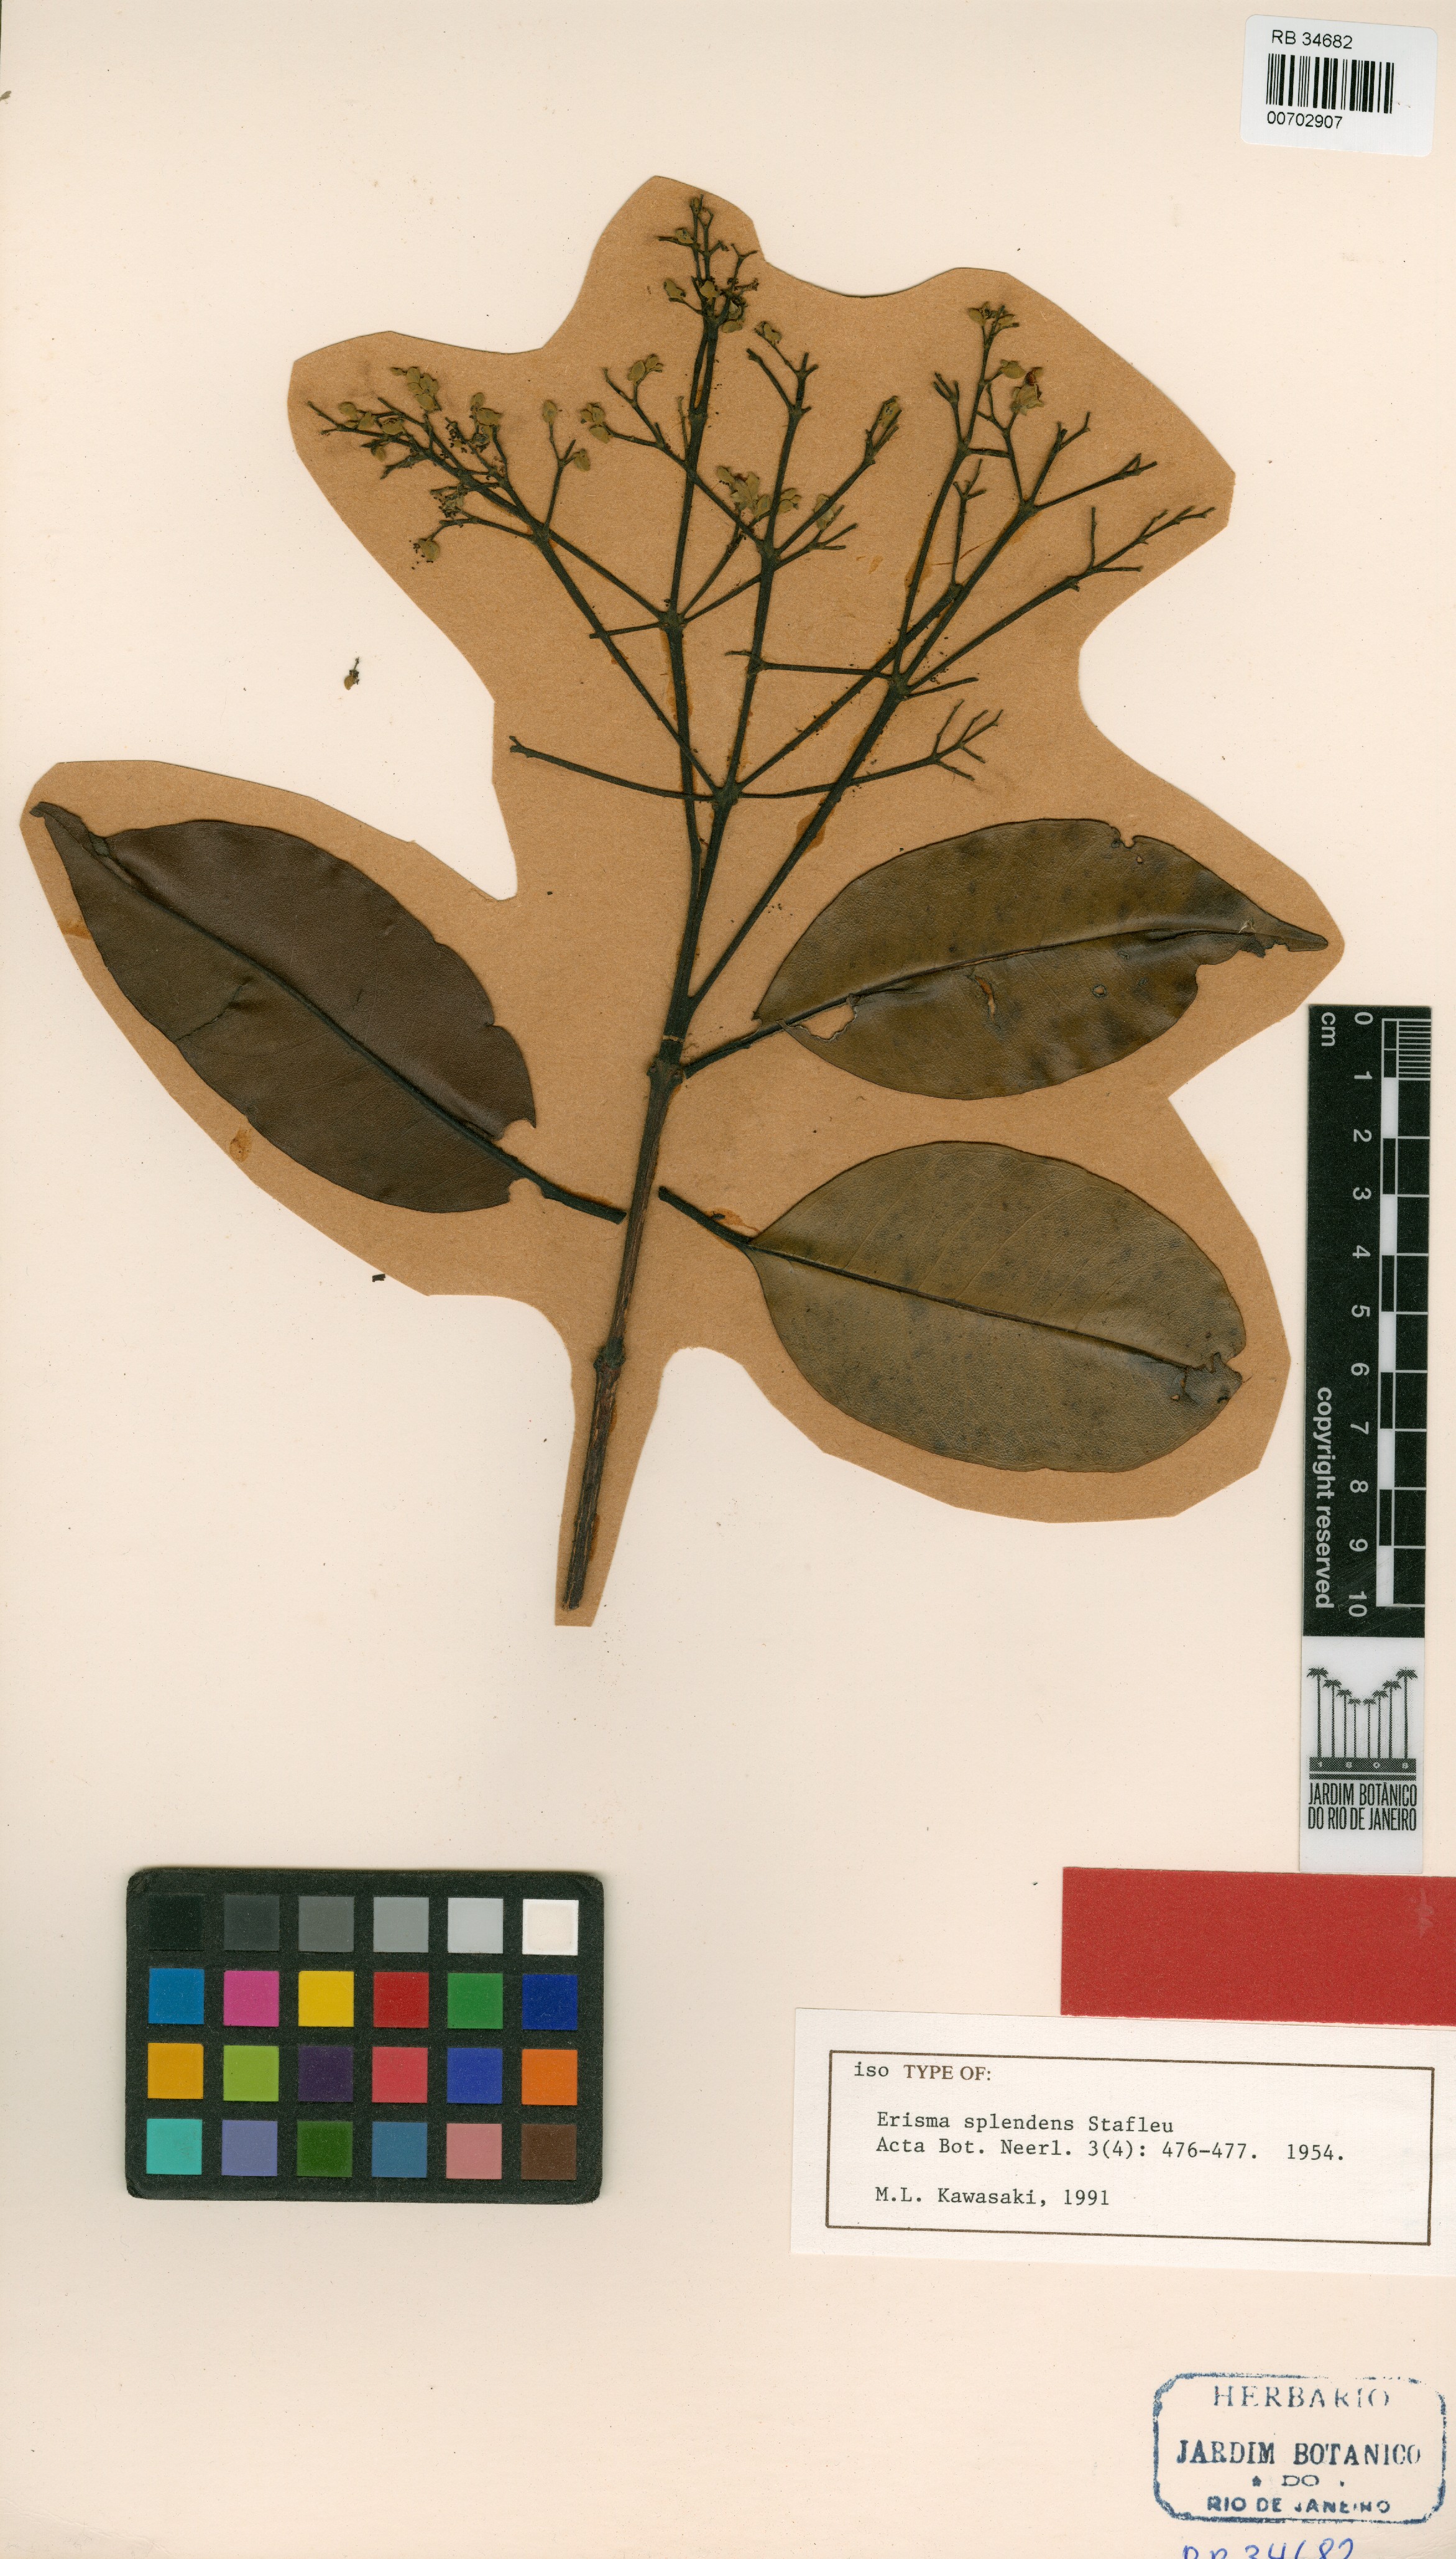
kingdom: Plantae
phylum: Tracheophyta
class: Magnoliopsida
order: Myrtales
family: Vochysiaceae
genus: Erisma
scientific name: Erisma splendens
